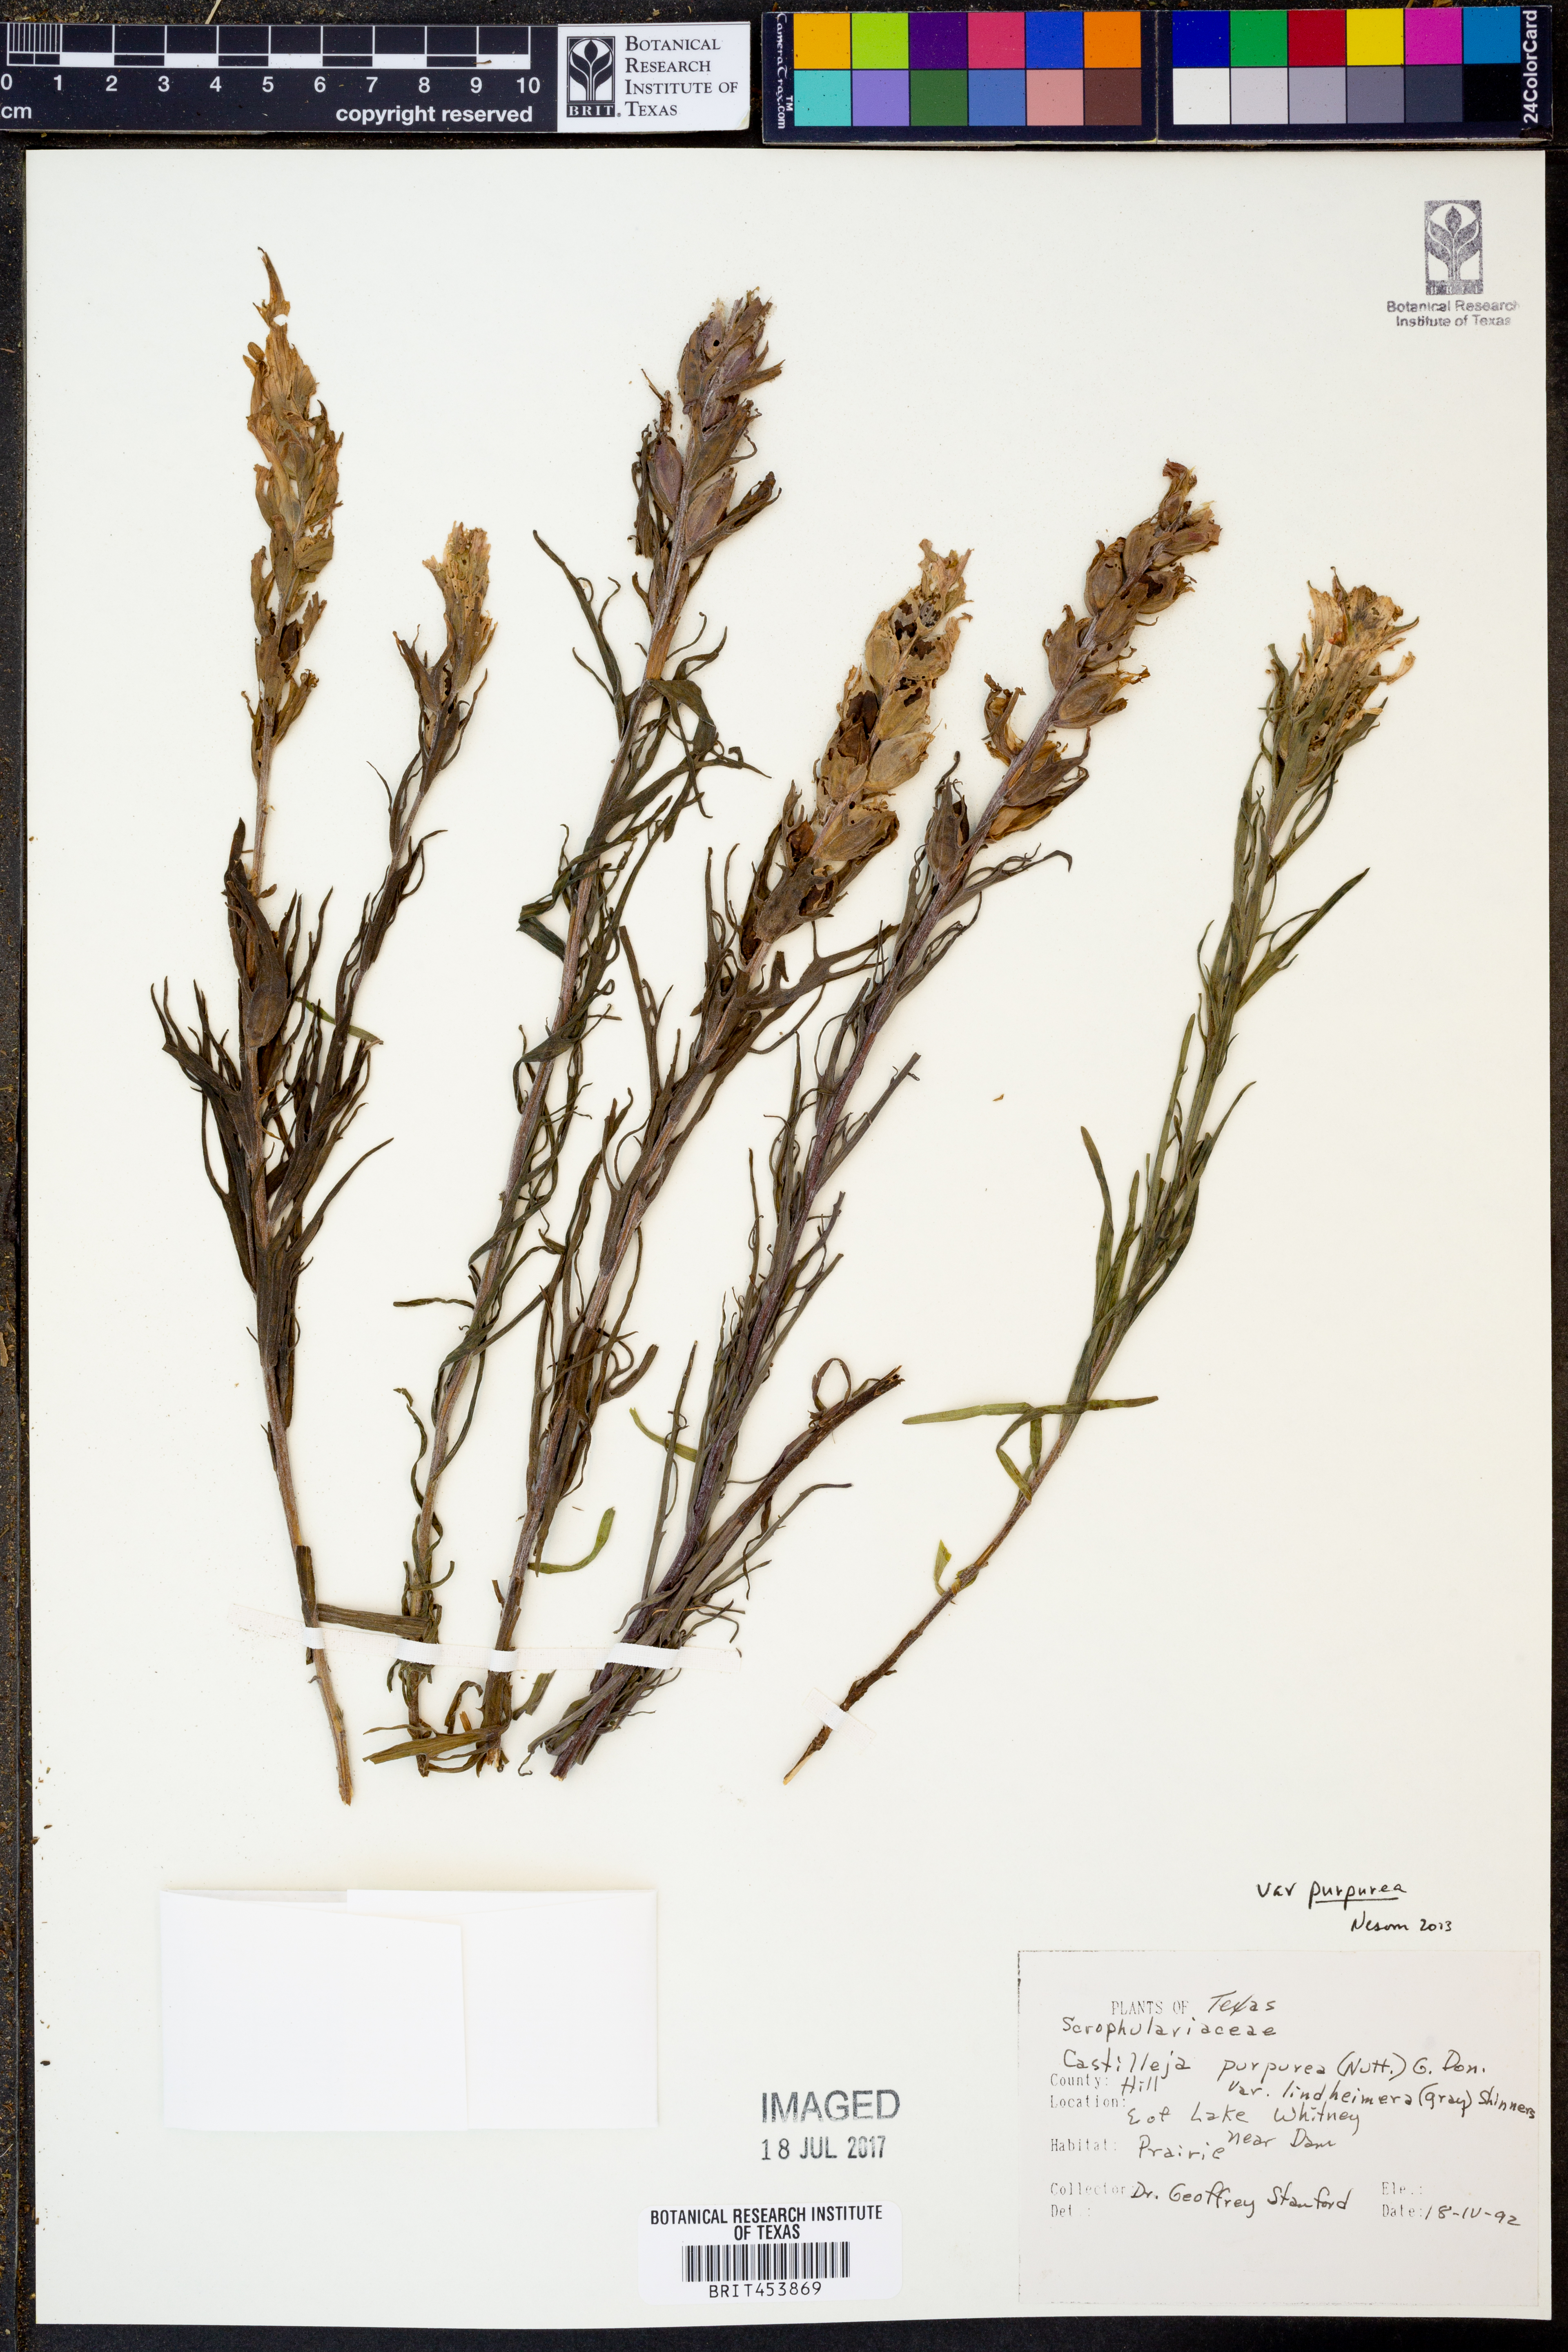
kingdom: Plantae
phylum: Tracheophyta
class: Magnoliopsida
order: Lamiales
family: Orobanchaceae
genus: Castilleja
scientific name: Castilleja purpurea
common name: Plains paintbrush
